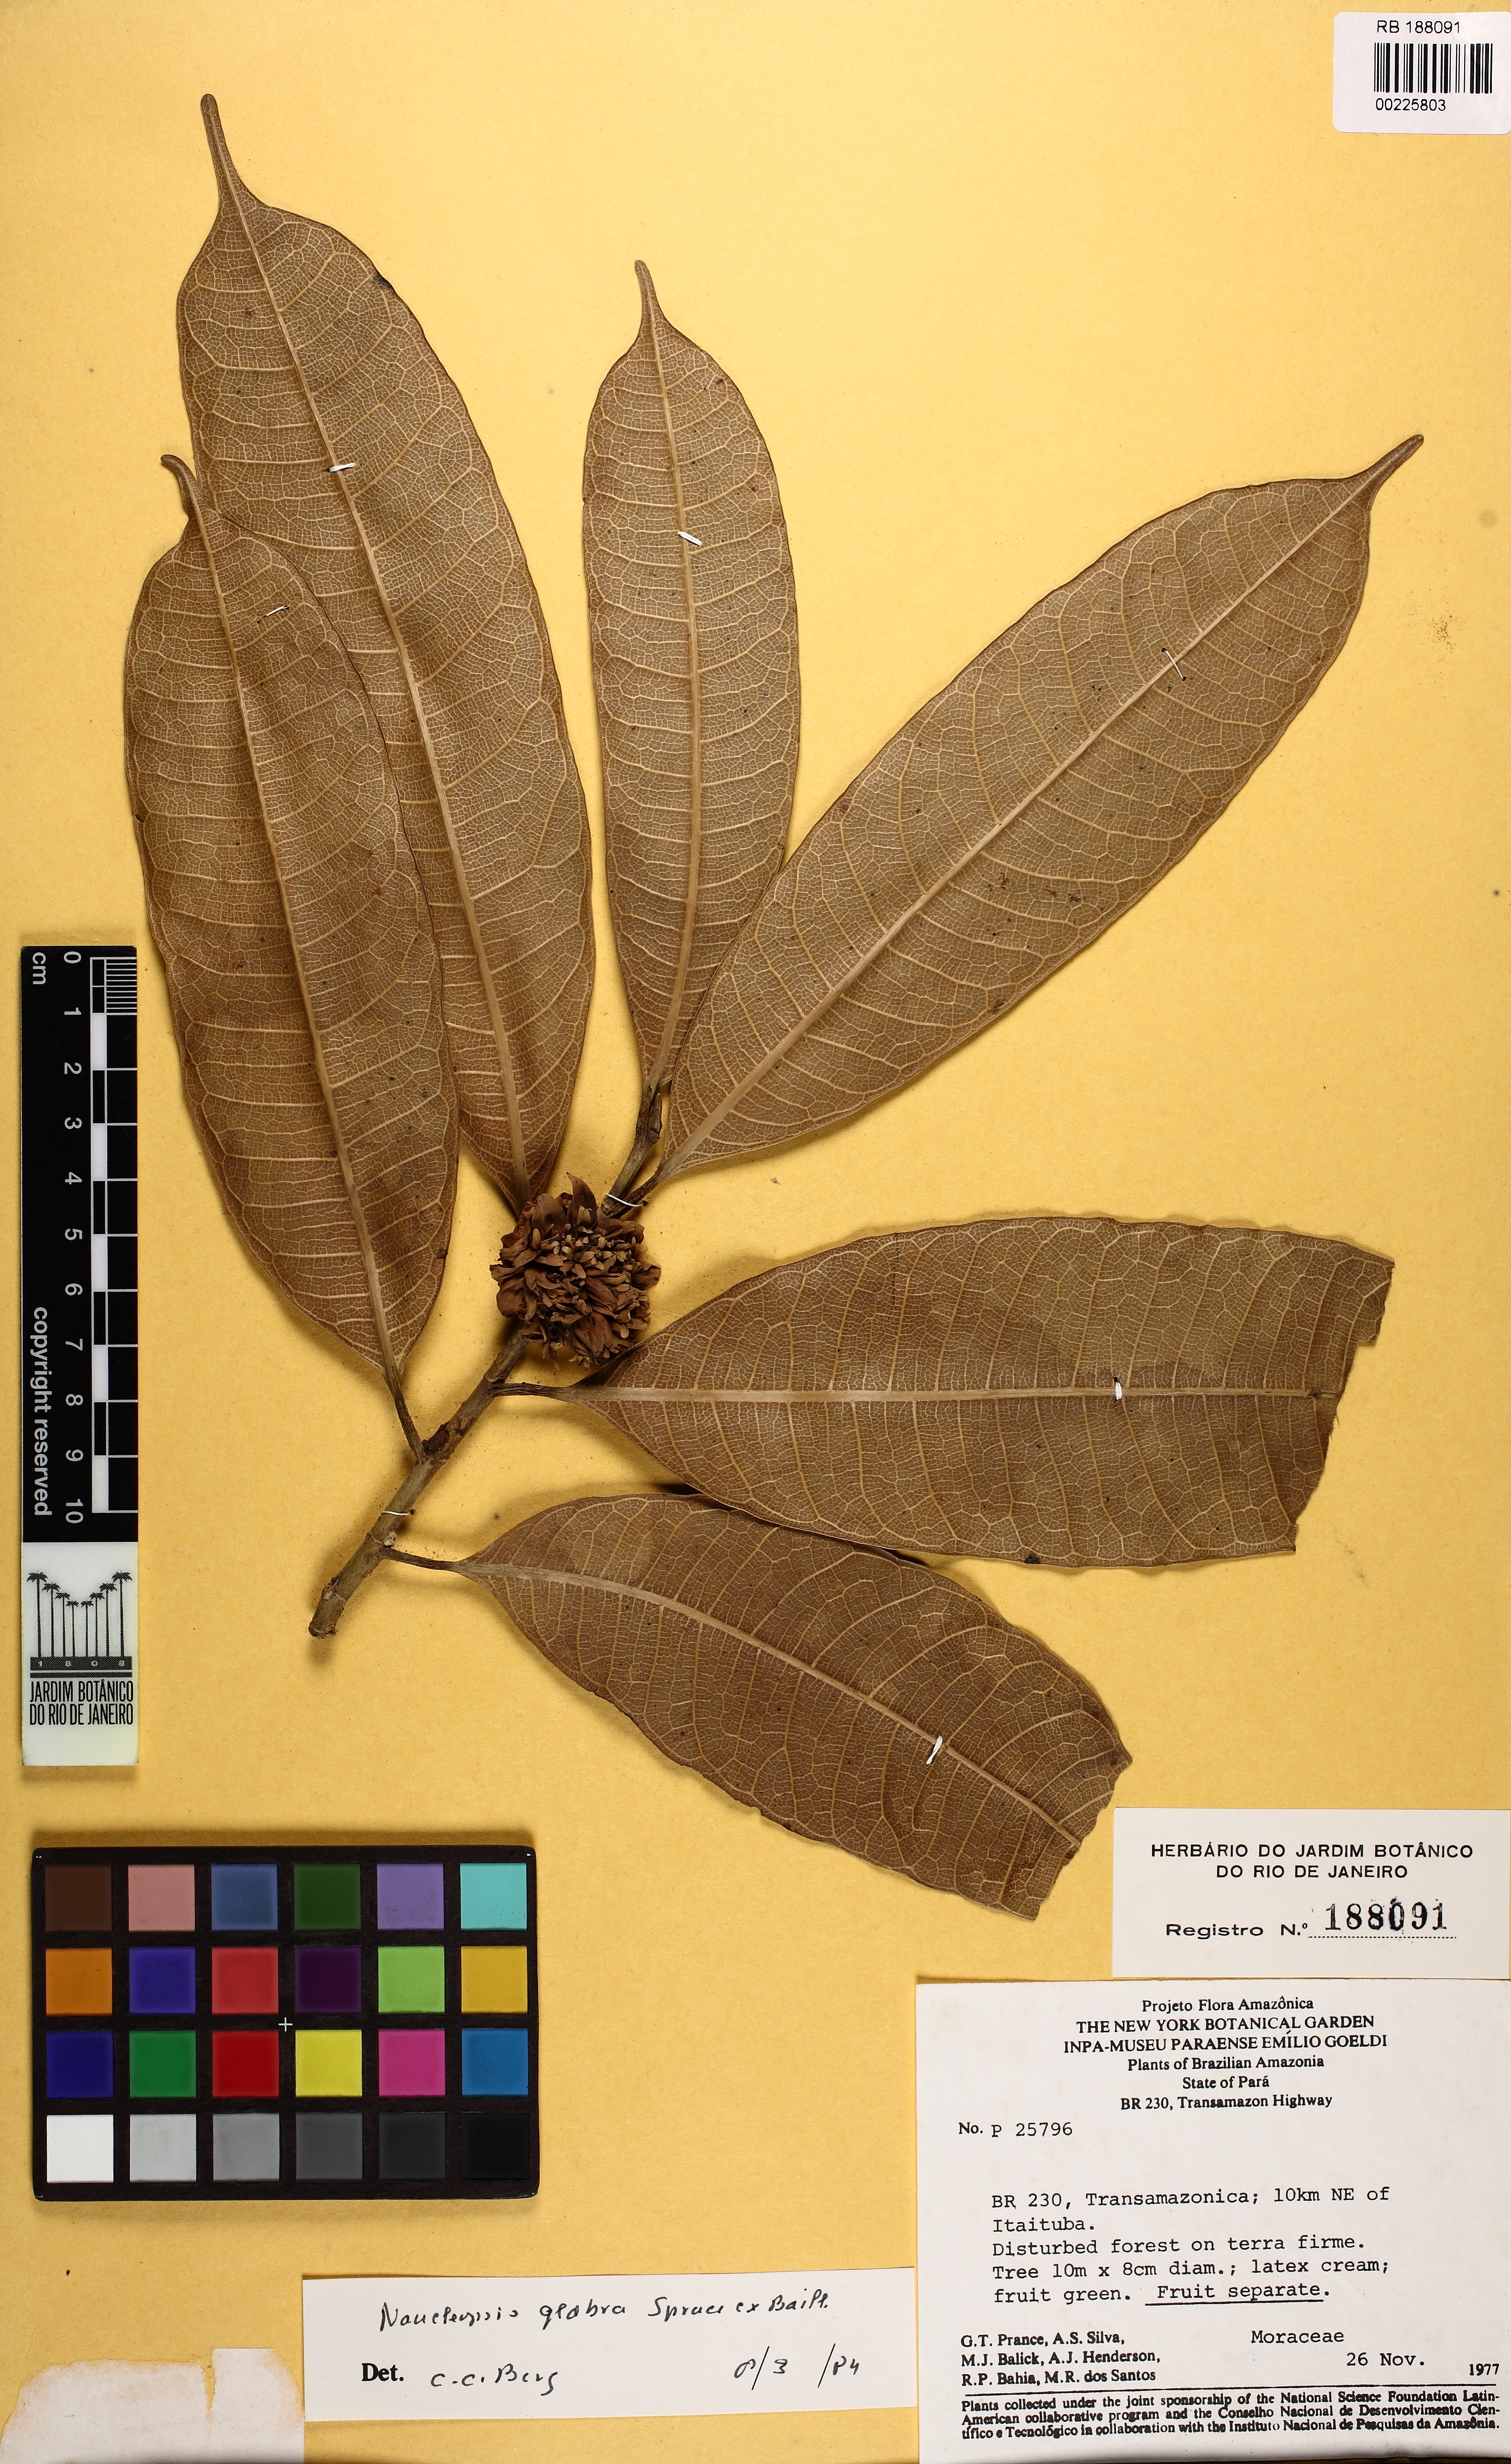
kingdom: Plantae
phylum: Tracheophyta
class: Magnoliopsida
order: Rosales
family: Moraceae
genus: Naucleopsis
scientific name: Naucleopsis glabra
